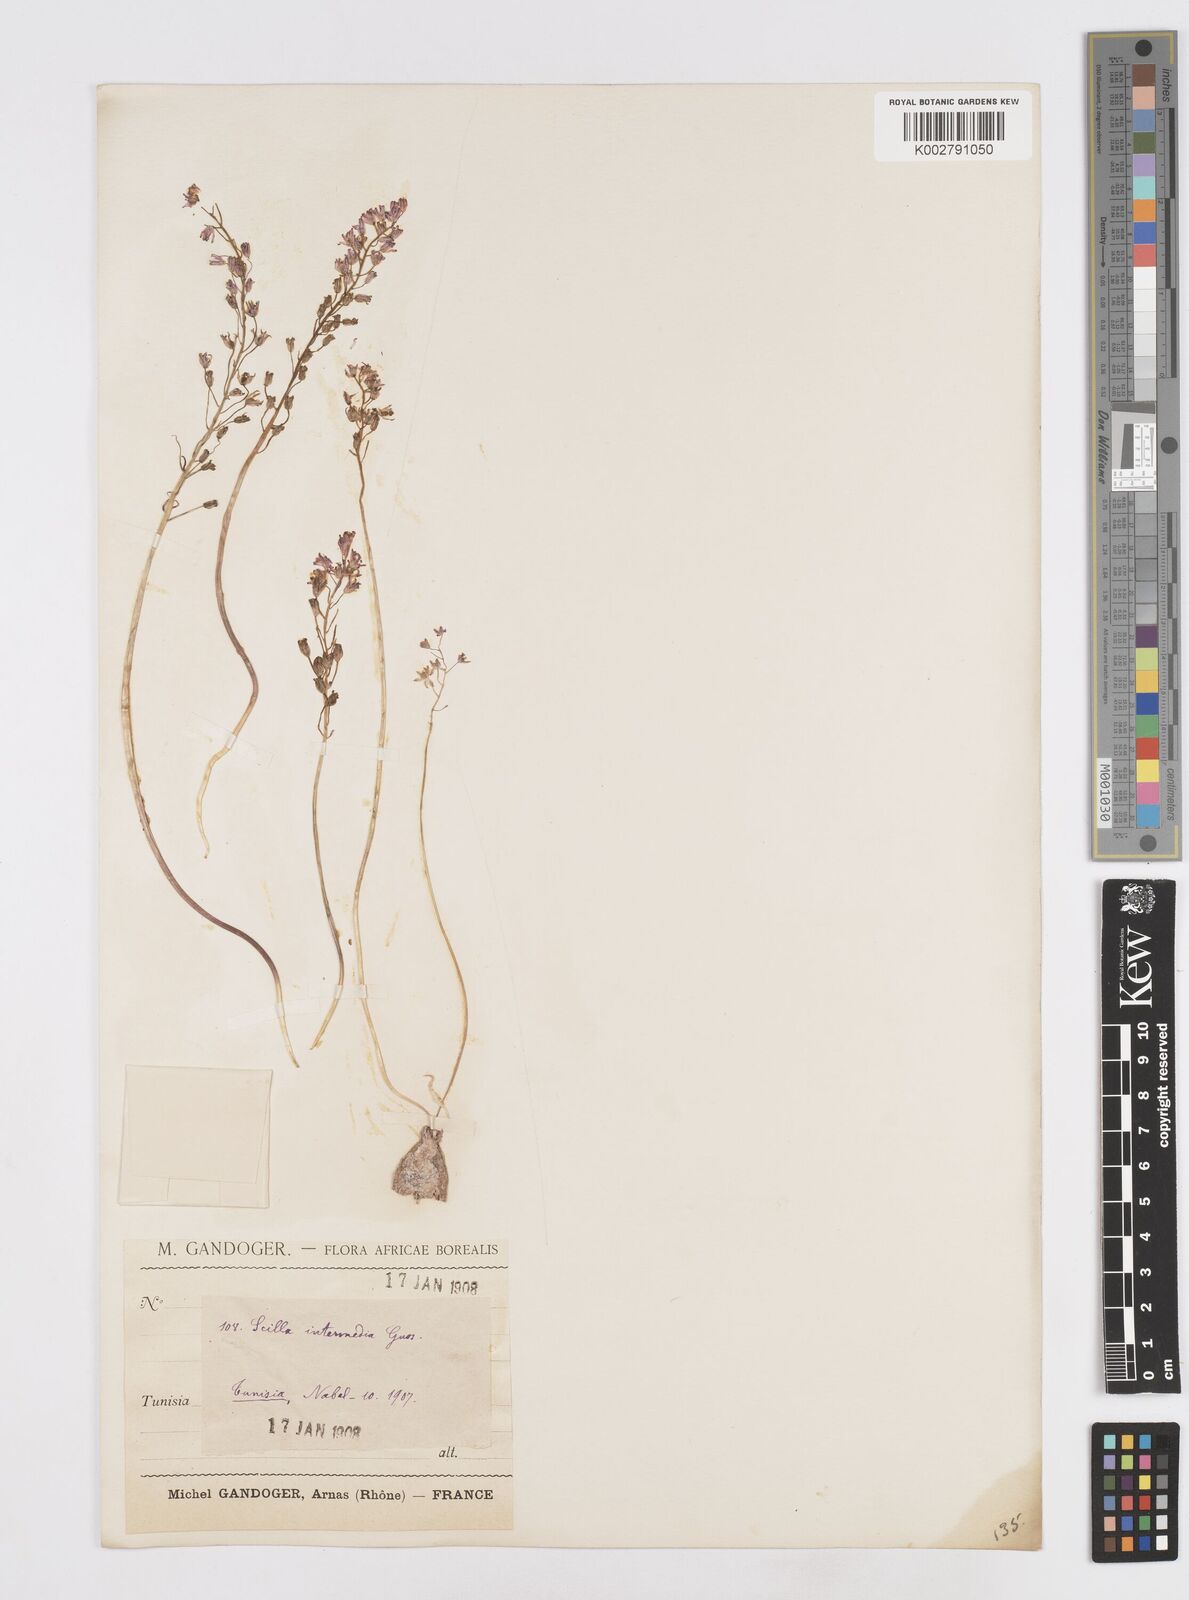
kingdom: Plantae
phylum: Tracheophyta
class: Liliopsida
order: Asparagales
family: Asparagaceae
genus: Prospero
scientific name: Prospero obtusifolium
